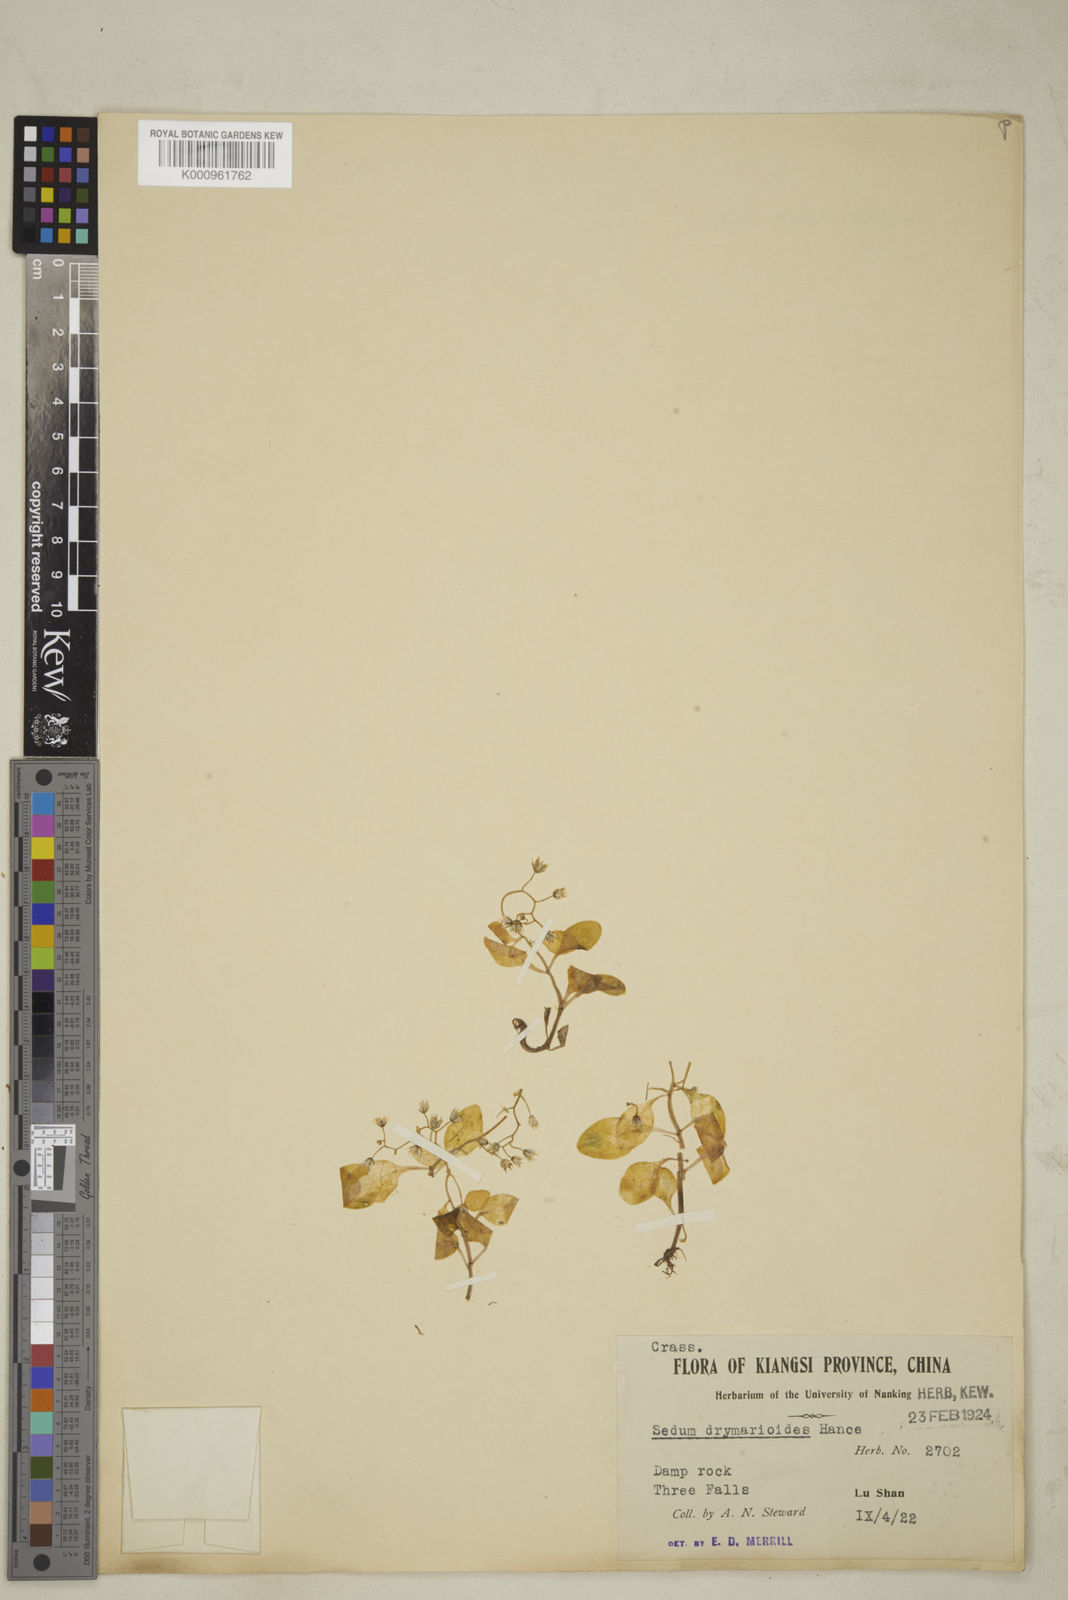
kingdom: Plantae
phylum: Tracheophyta
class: Magnoliopsida
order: Saxifragales
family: Crassulaceae
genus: Sedum
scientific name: Sedum drymarioides
